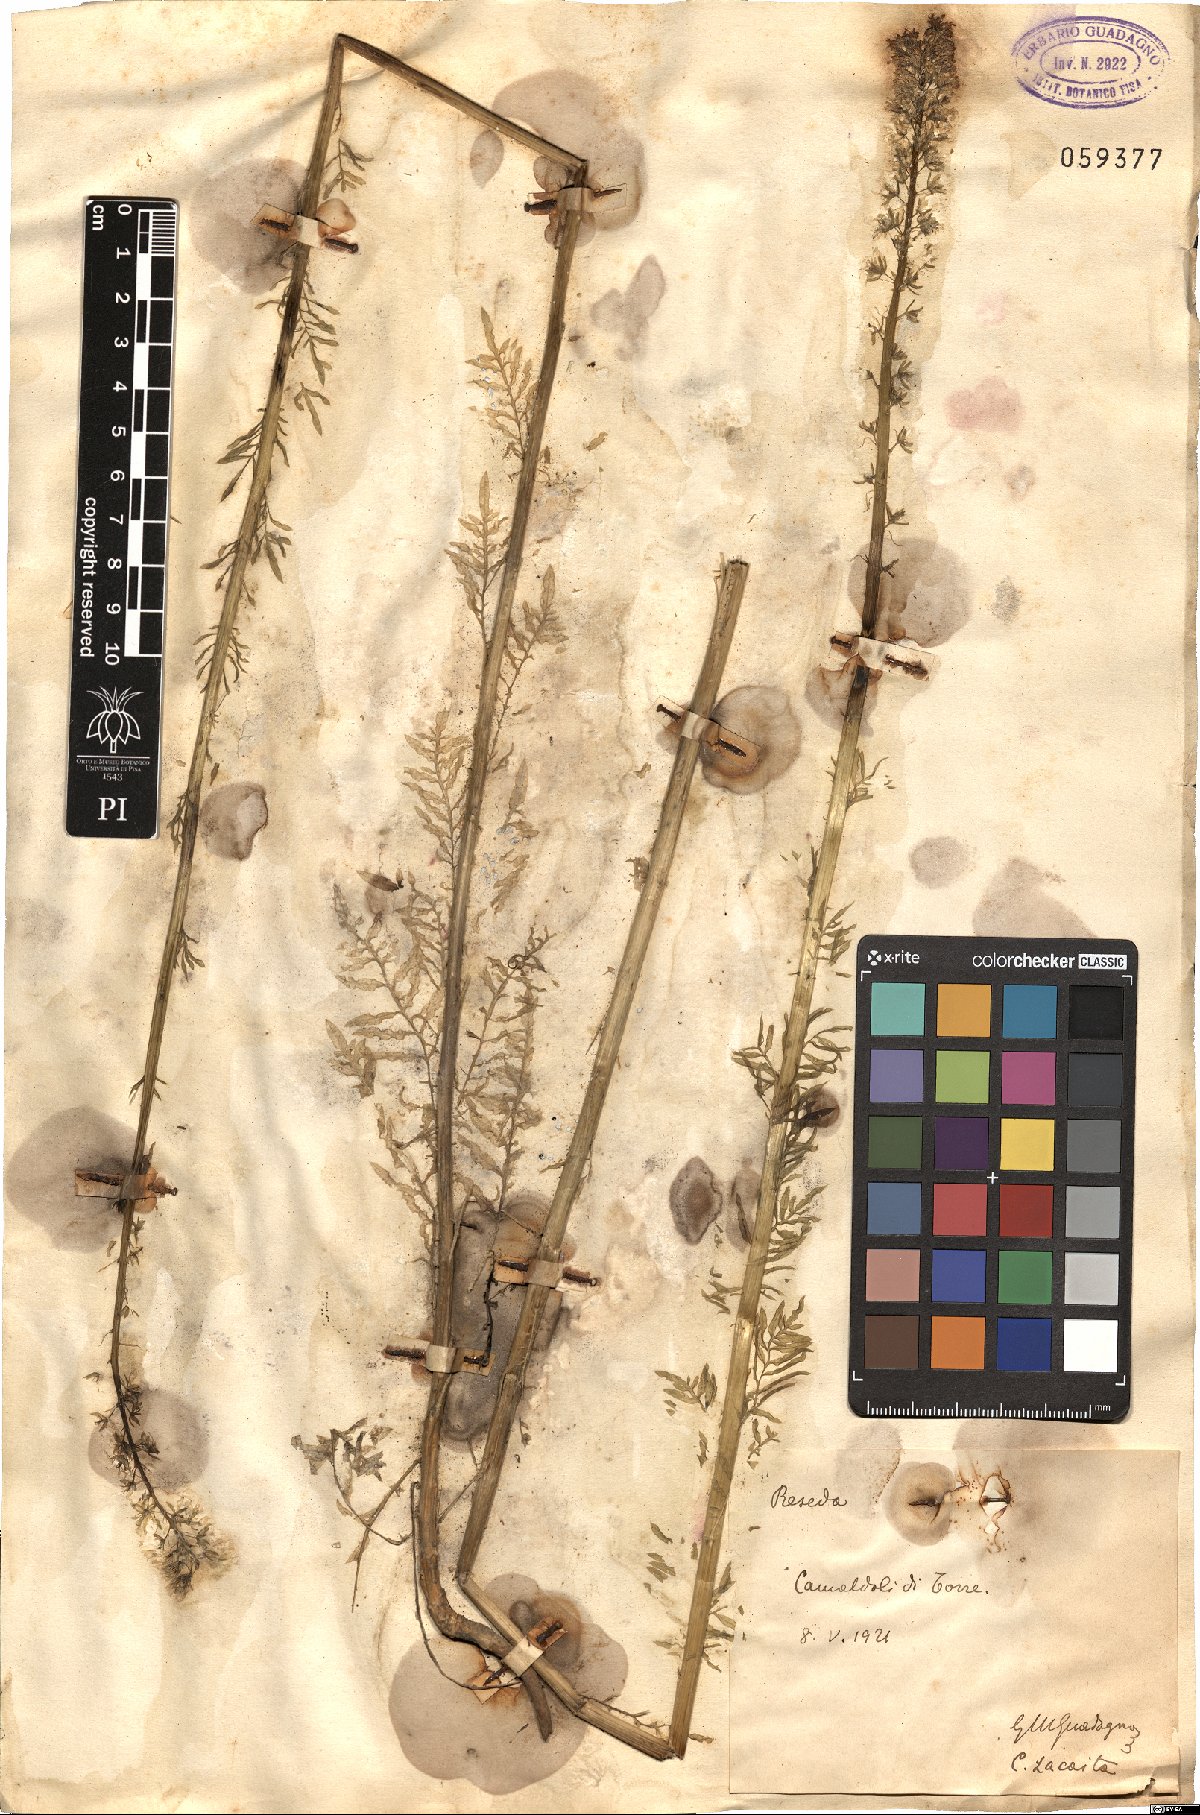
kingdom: Plantae
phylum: Tracheophyta
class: Magnoliopsida
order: Brassicales
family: Resedaceae
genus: Reseda
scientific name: Reseda
